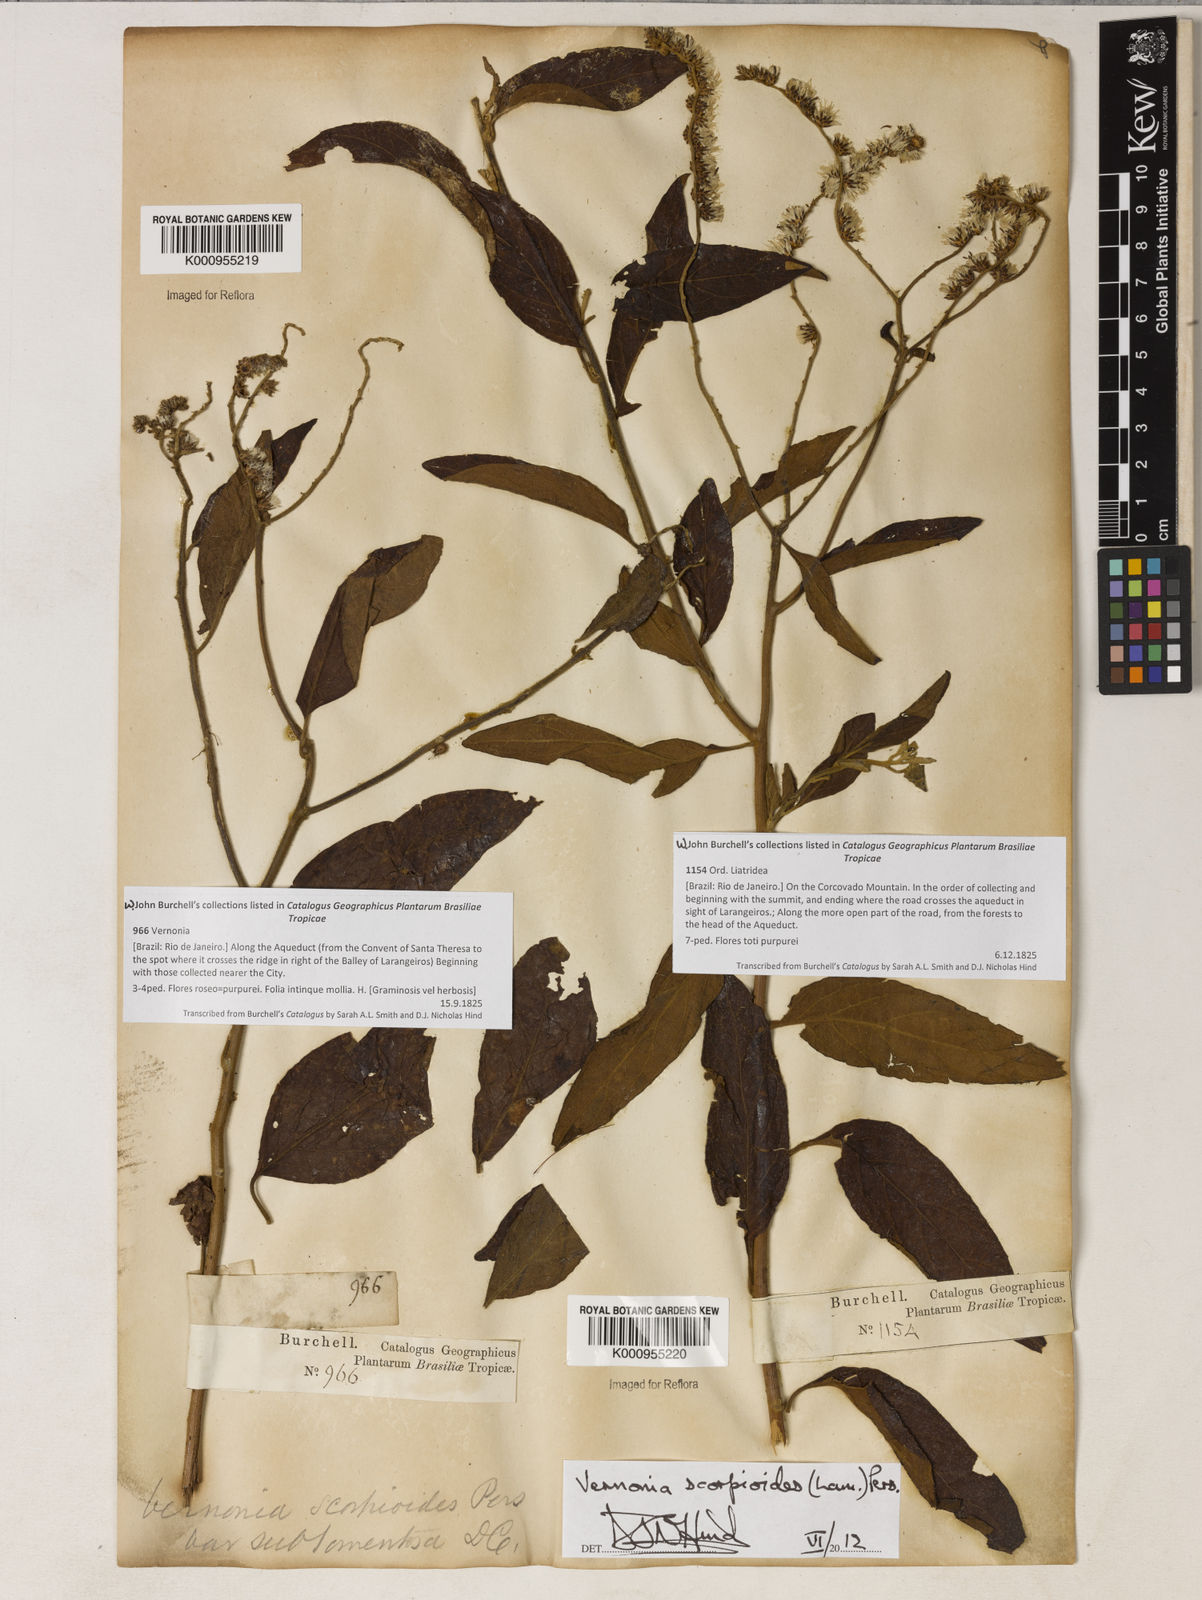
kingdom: Plantae
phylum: Tracheophyta
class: Magnoliopsida
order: Asterales
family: Asteraceae
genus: Cyrtocymura
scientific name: Cyrtocymura scorpioides
